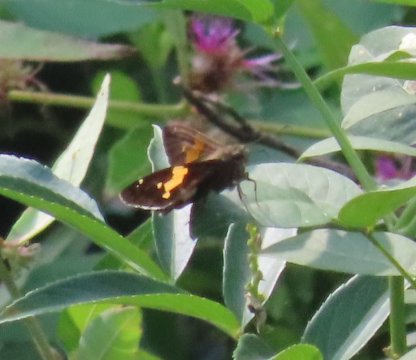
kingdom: Animalia
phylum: Arthropoda
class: Insecta
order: Lepidoptera
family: Hesperiidae
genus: Epargyreus
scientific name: Epargyreus clarus
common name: Silver-spotted Skipper
